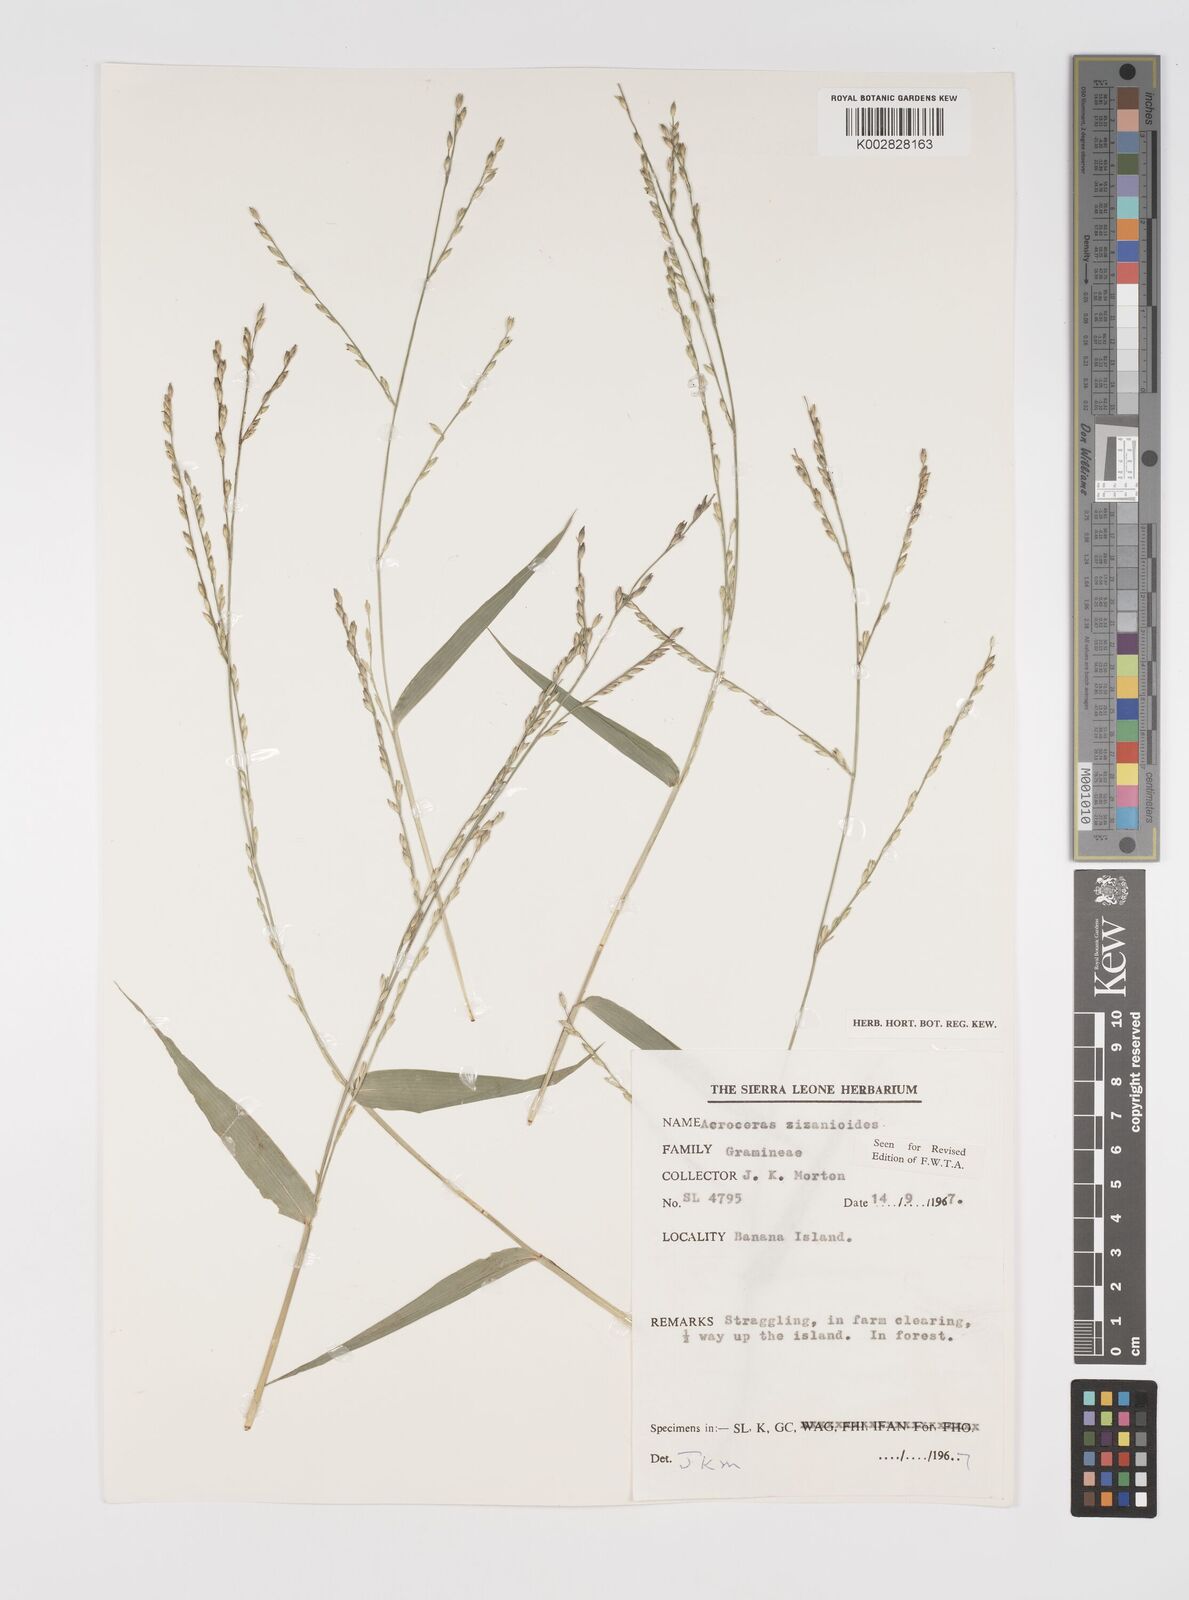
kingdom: Plantae
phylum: Tracheophyta
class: Liliopsida
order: Poales
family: Poaceae
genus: Acroceras
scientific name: Acroceras zizanioides
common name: Oat grass
